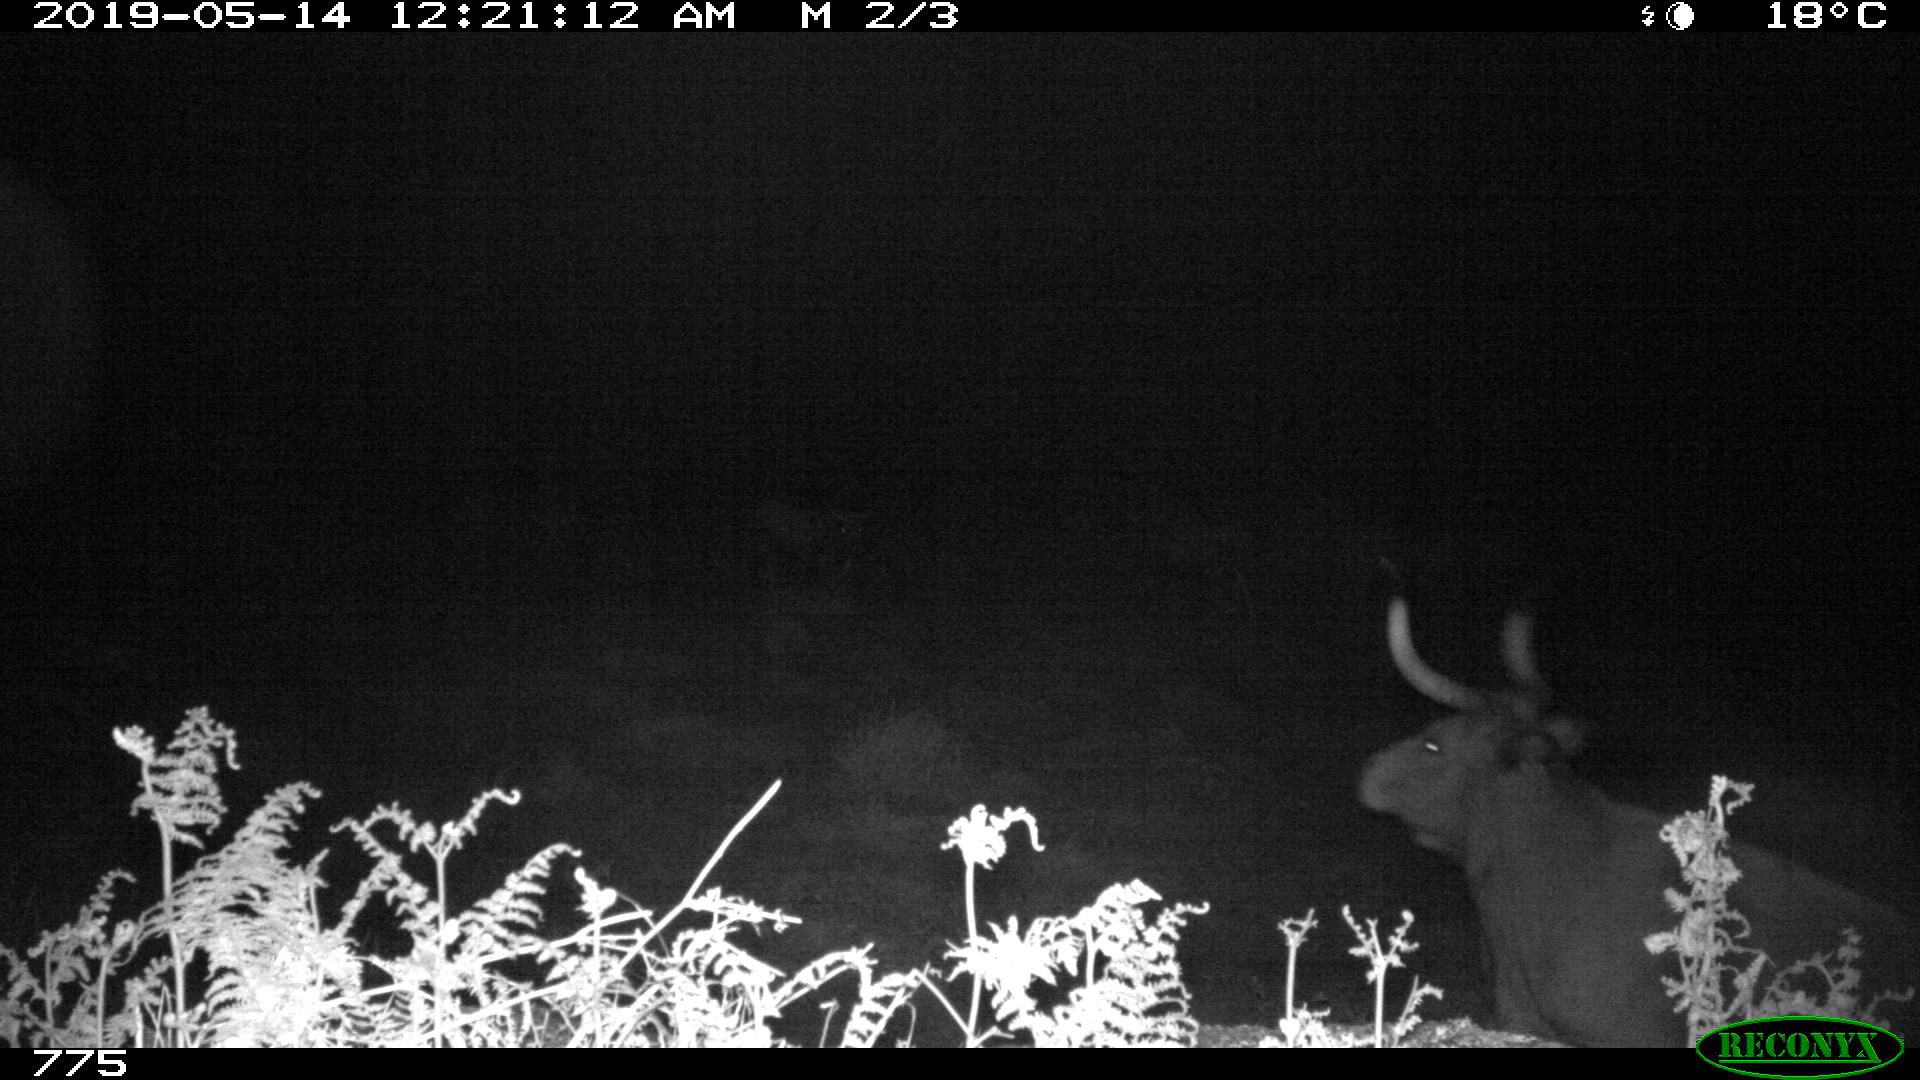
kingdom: Animalia
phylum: Chordata
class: Mammalia
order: Artiodactyla
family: Bovidae
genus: Bos
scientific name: Bos taurus
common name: Domesticated cattle
